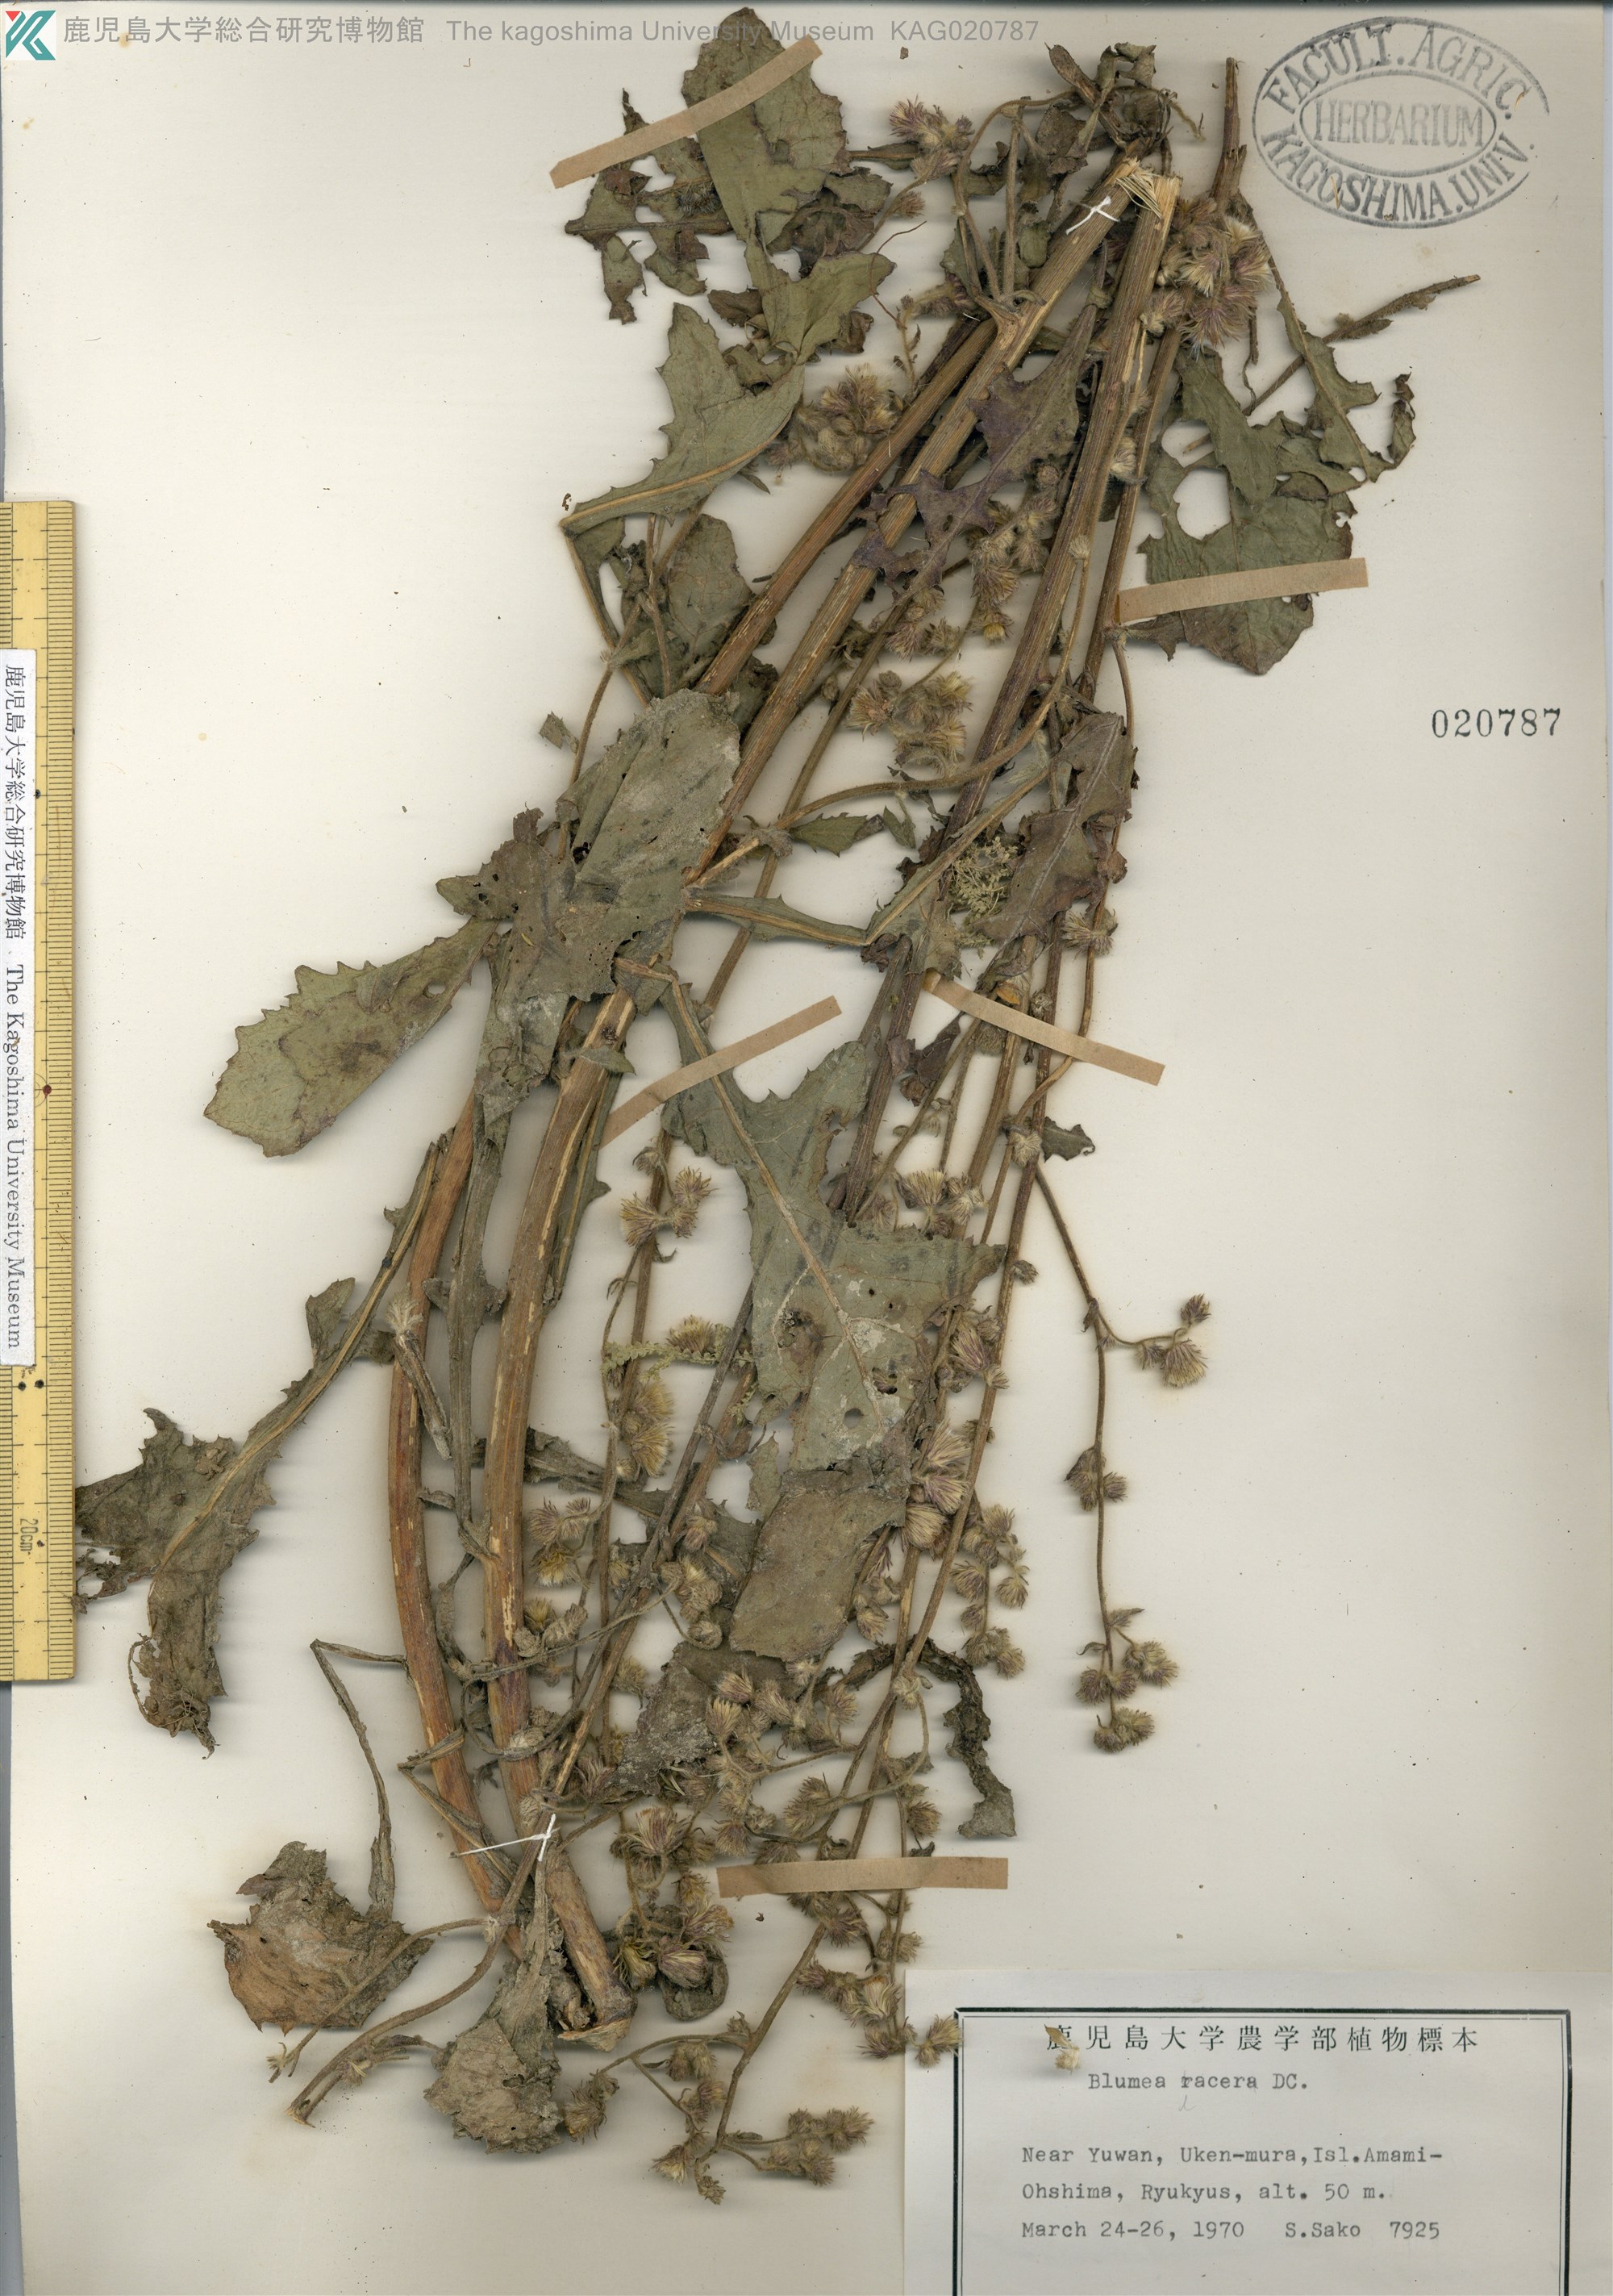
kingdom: Plantae
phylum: Tracheophyta
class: Magnoliopsida
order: Asterales
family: Asteraceae
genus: Blumea
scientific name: Blumea lacera
